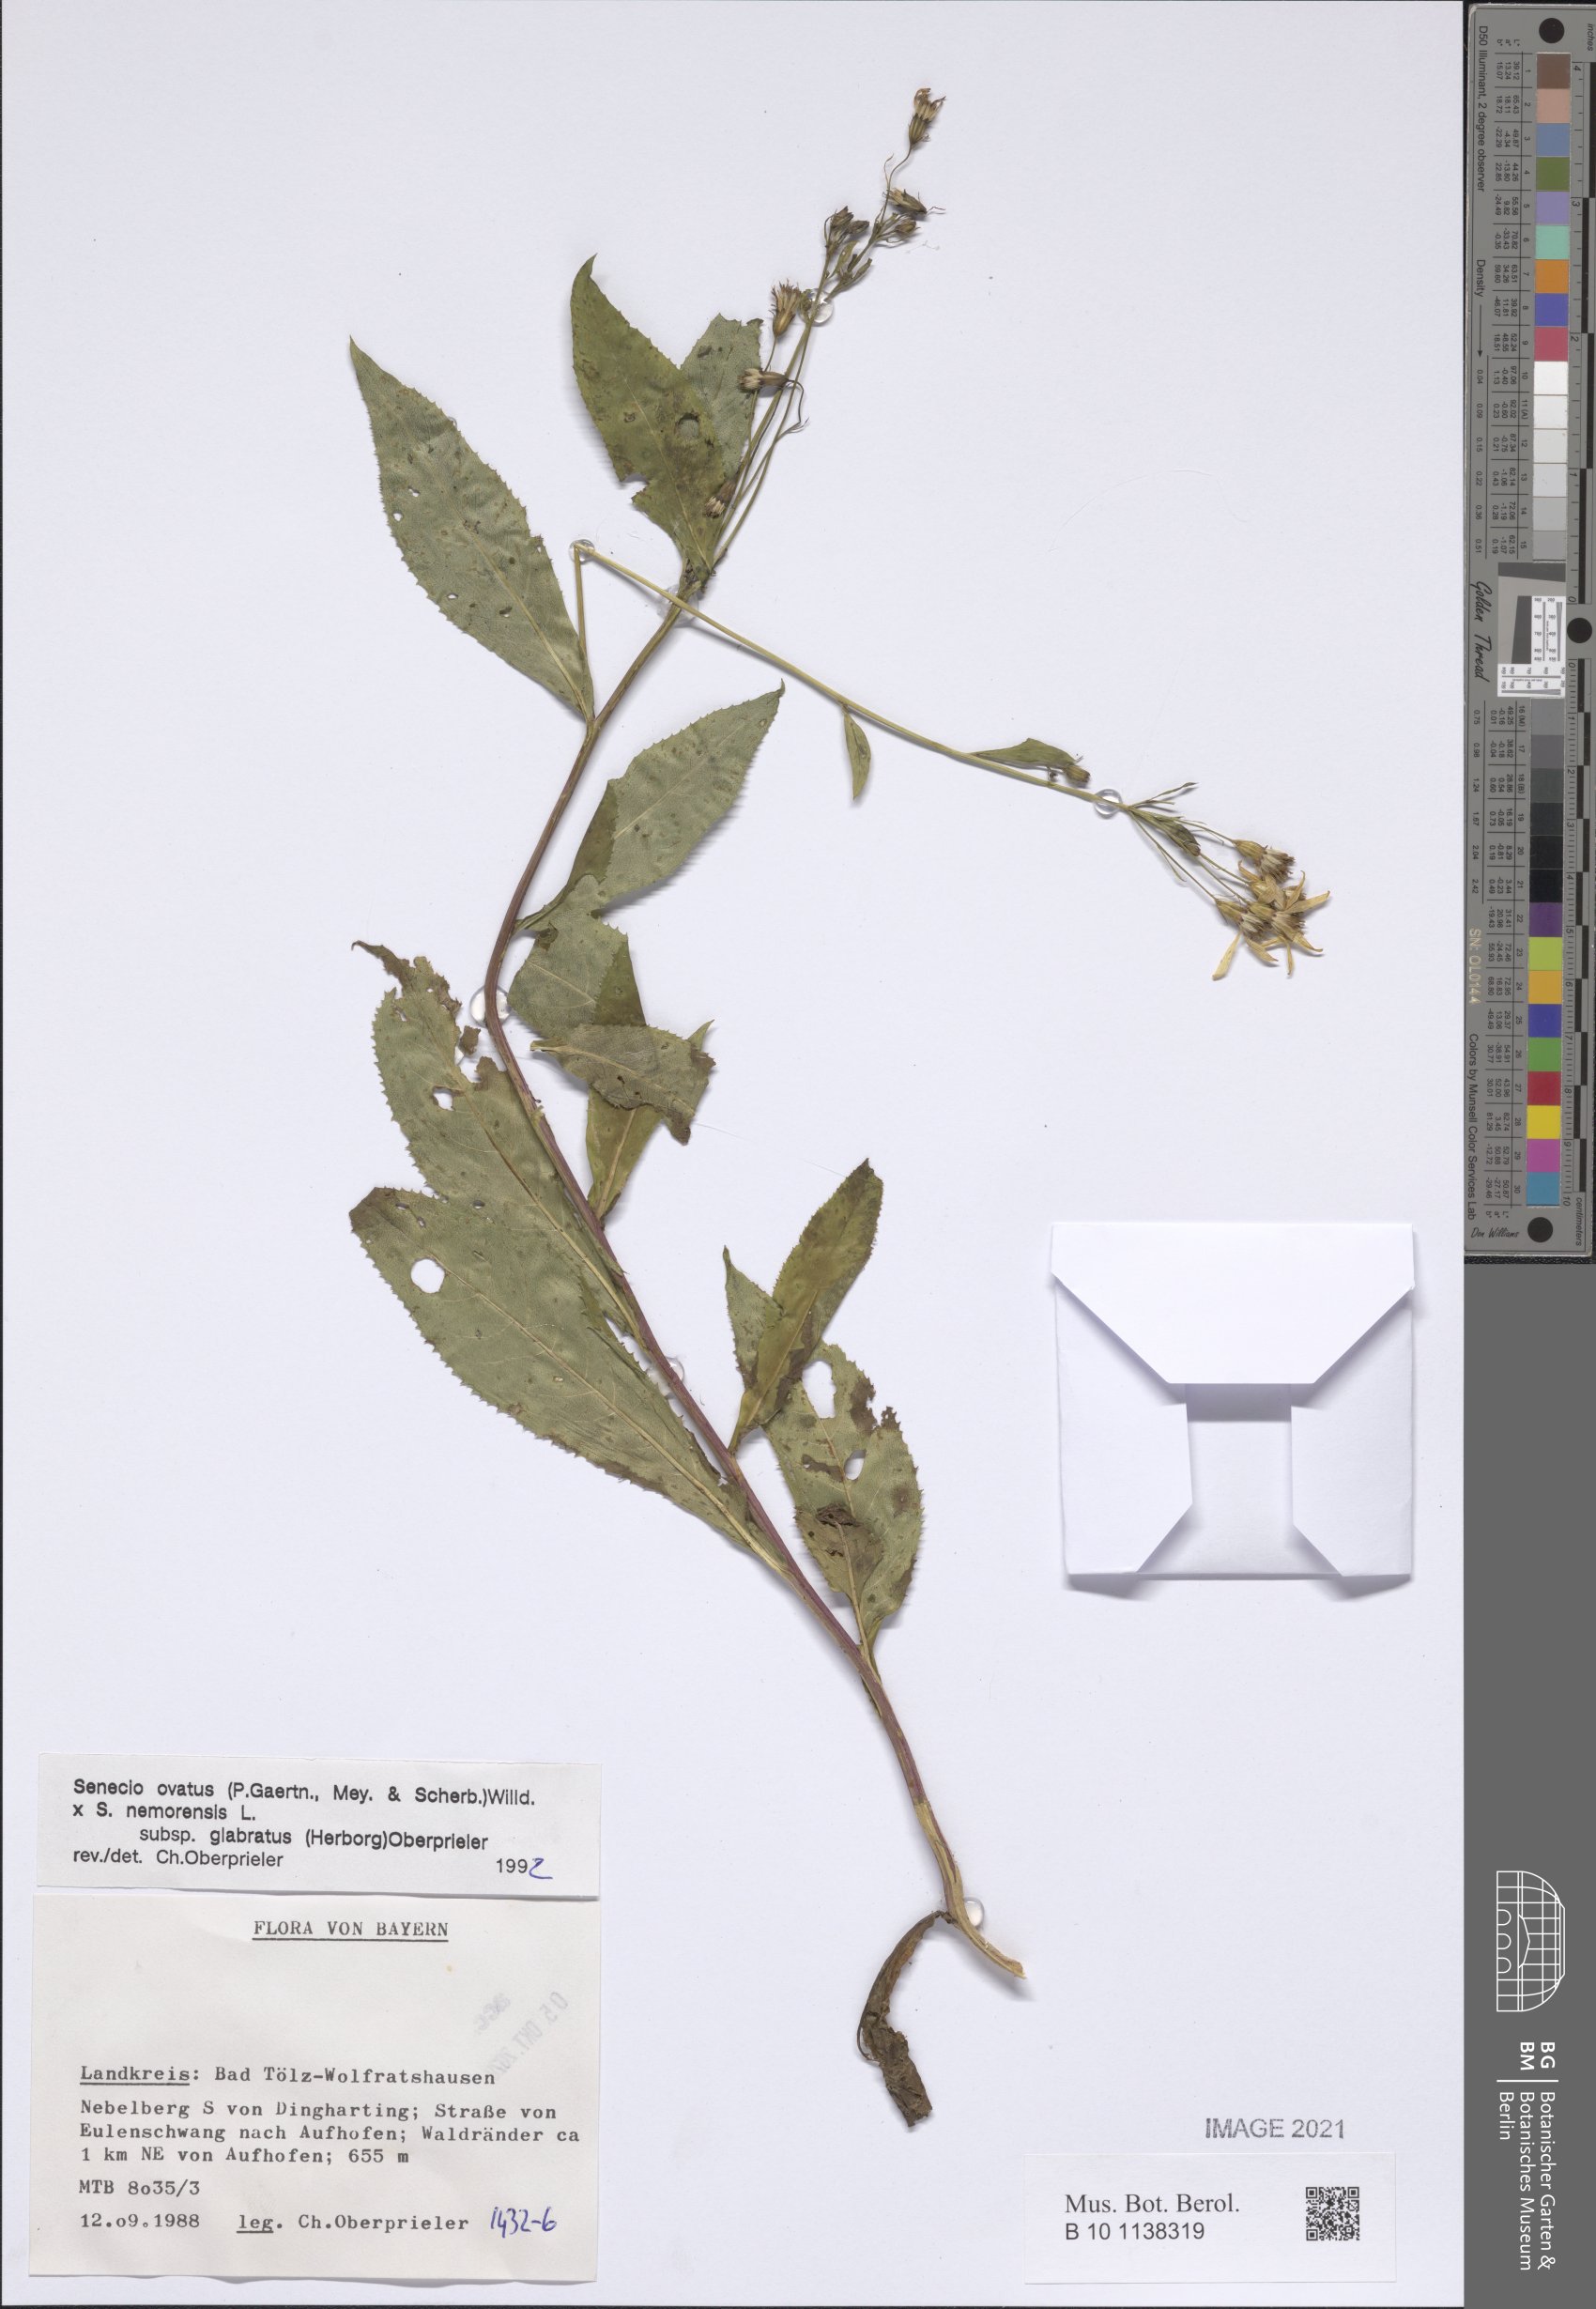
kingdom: Plantae
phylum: Tracheophyta
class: Magnoliopsida
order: Asterales
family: Asteraceae
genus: Senecio
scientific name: Senecio ovatus
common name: Wood ragwort
